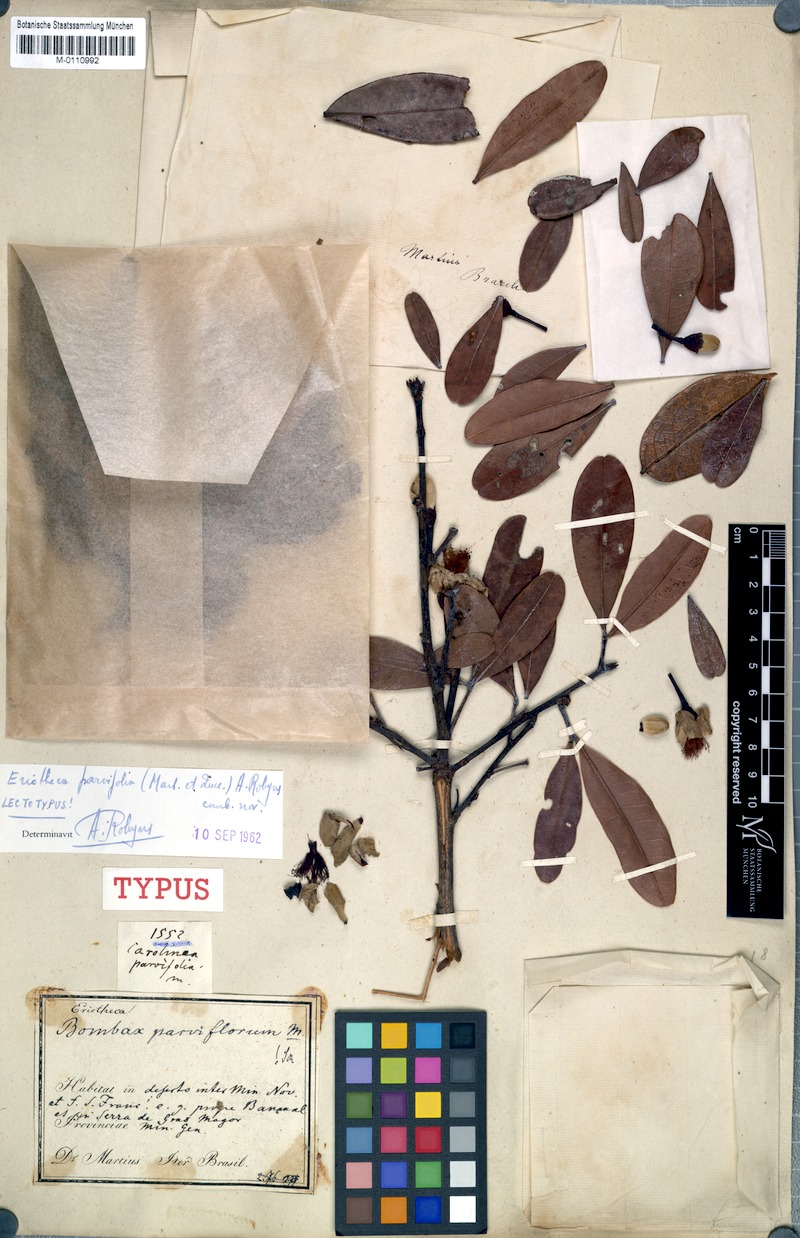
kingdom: Plantae
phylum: Tracheophyta
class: Magnoliopsida
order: Malvales
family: Malvaceae
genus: Eriotheca
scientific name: Eriotheca parvifolia
